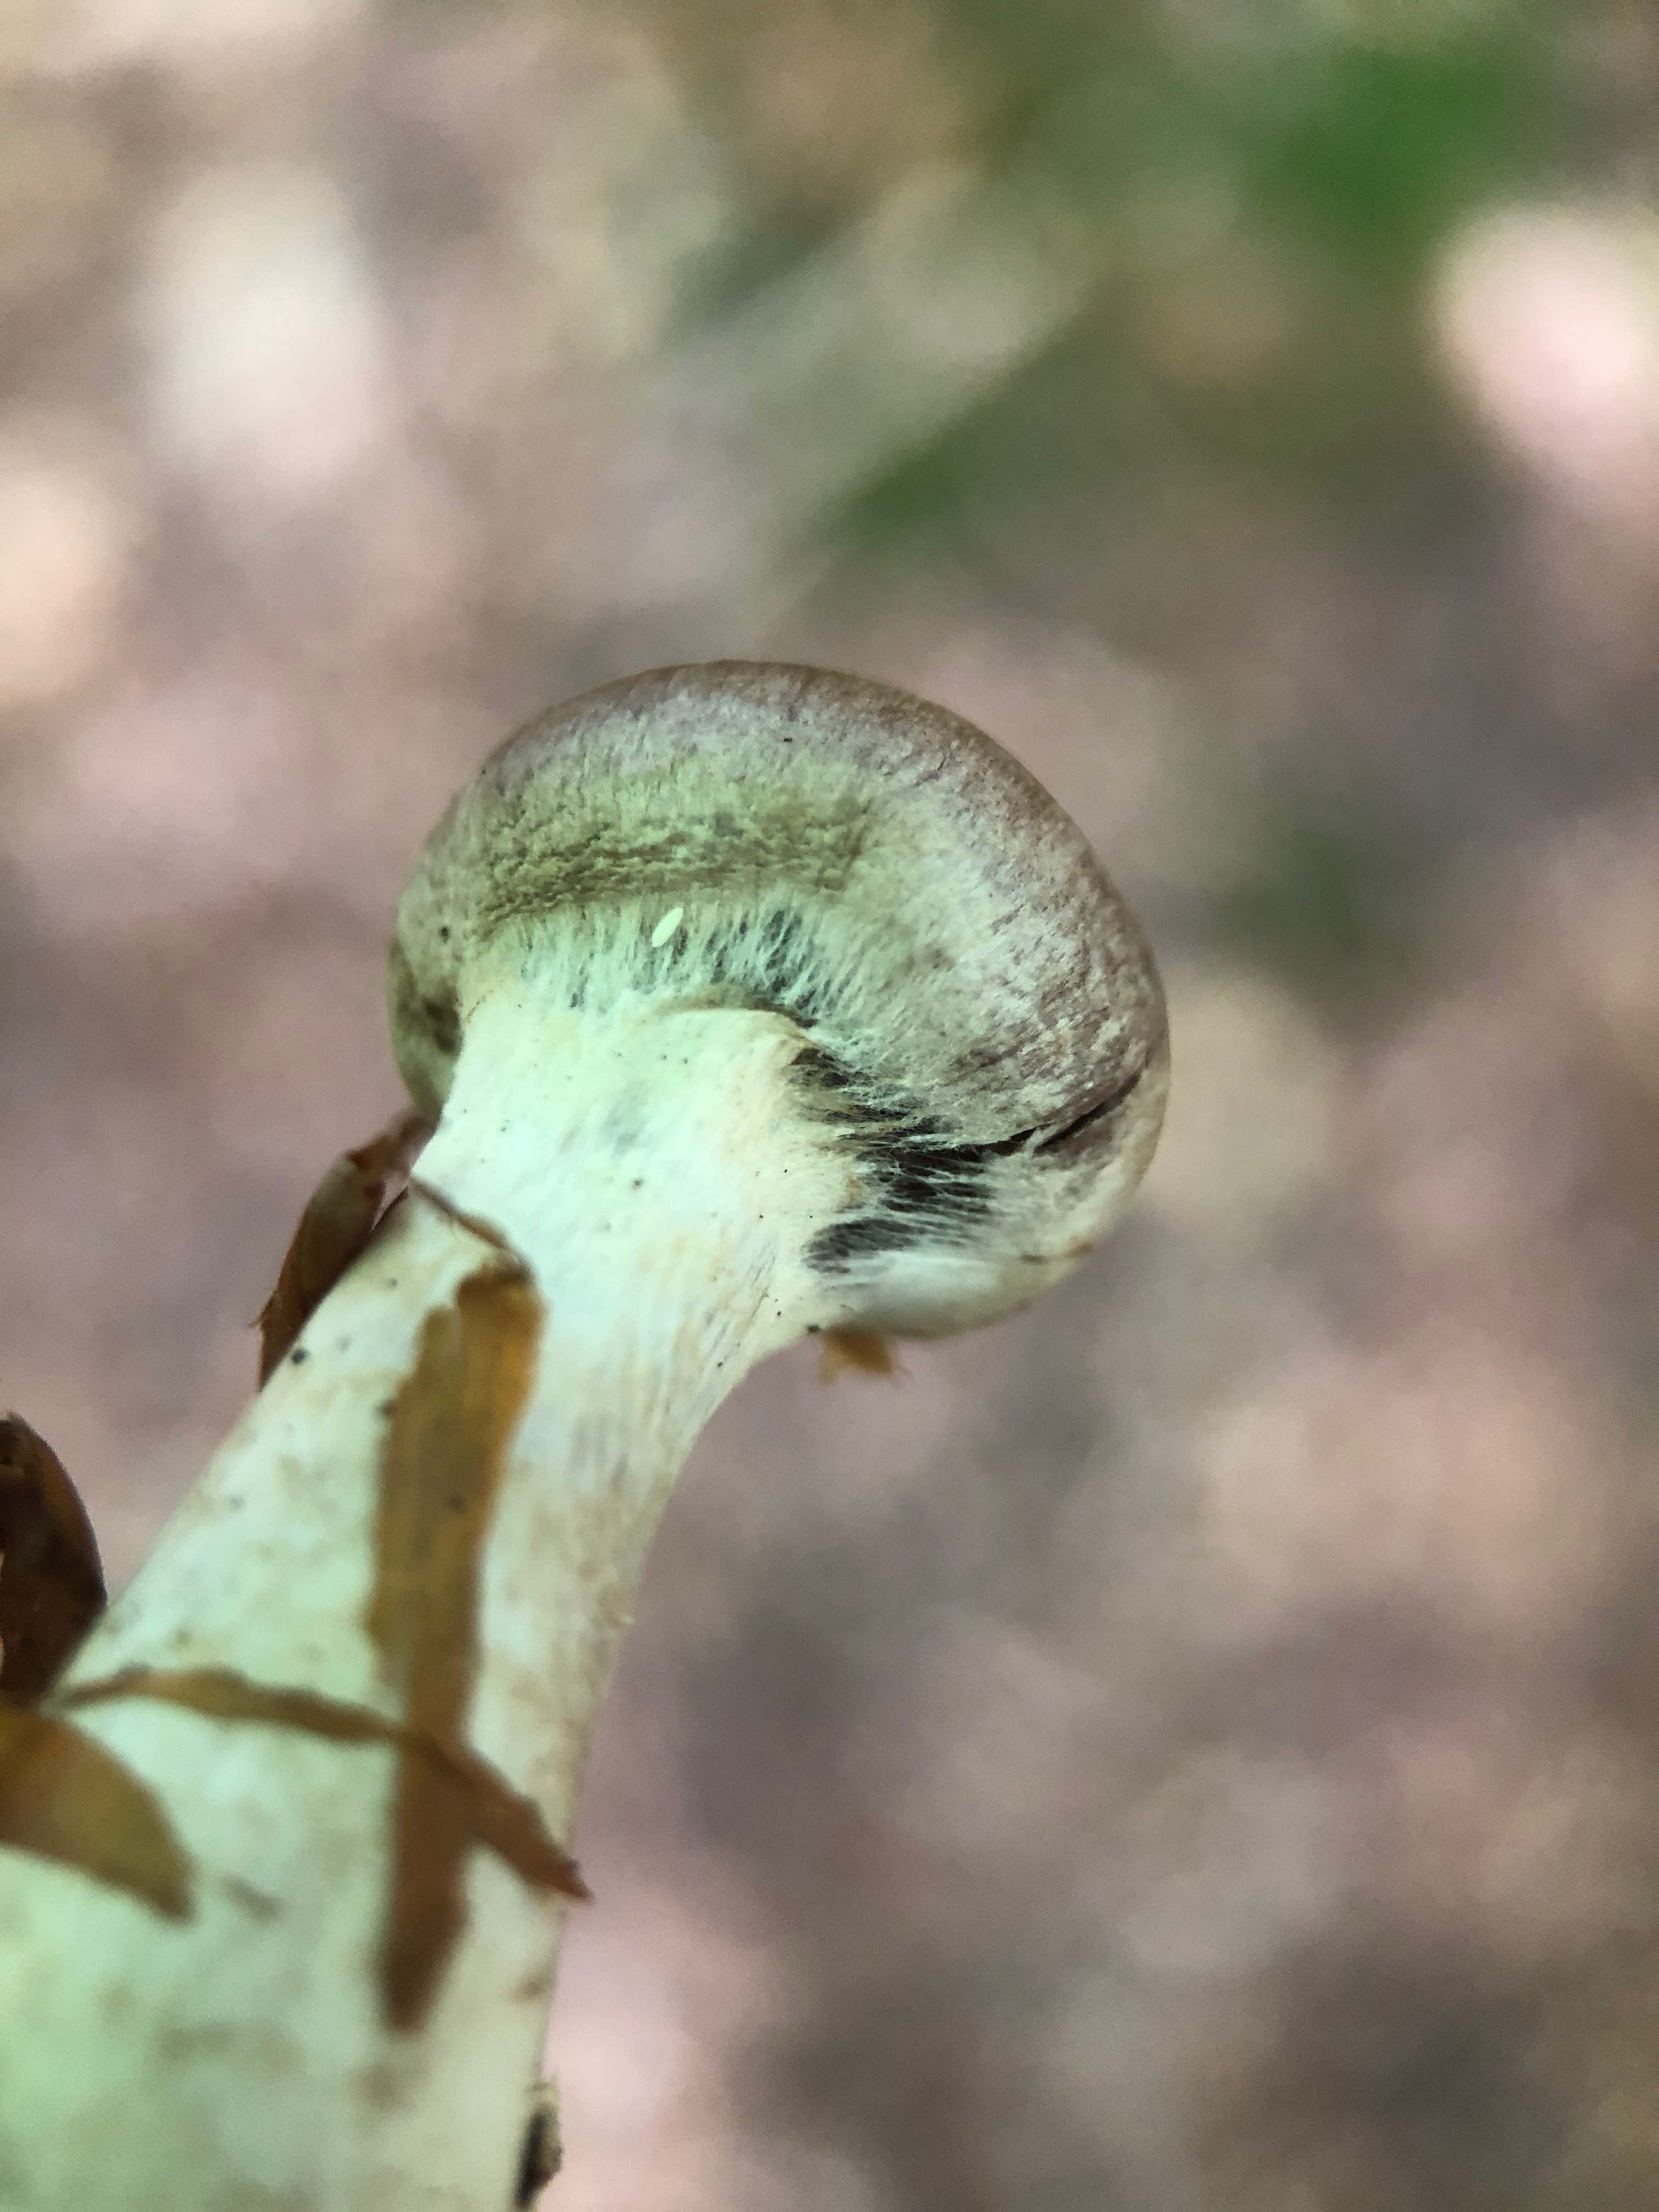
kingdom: Fungi
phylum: Basidiomycota
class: Agaricomycetes
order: Agaricales
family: Cortinariaceae
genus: Cortinarius
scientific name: Cortinarius torvus
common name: champignonagtig slørhat
